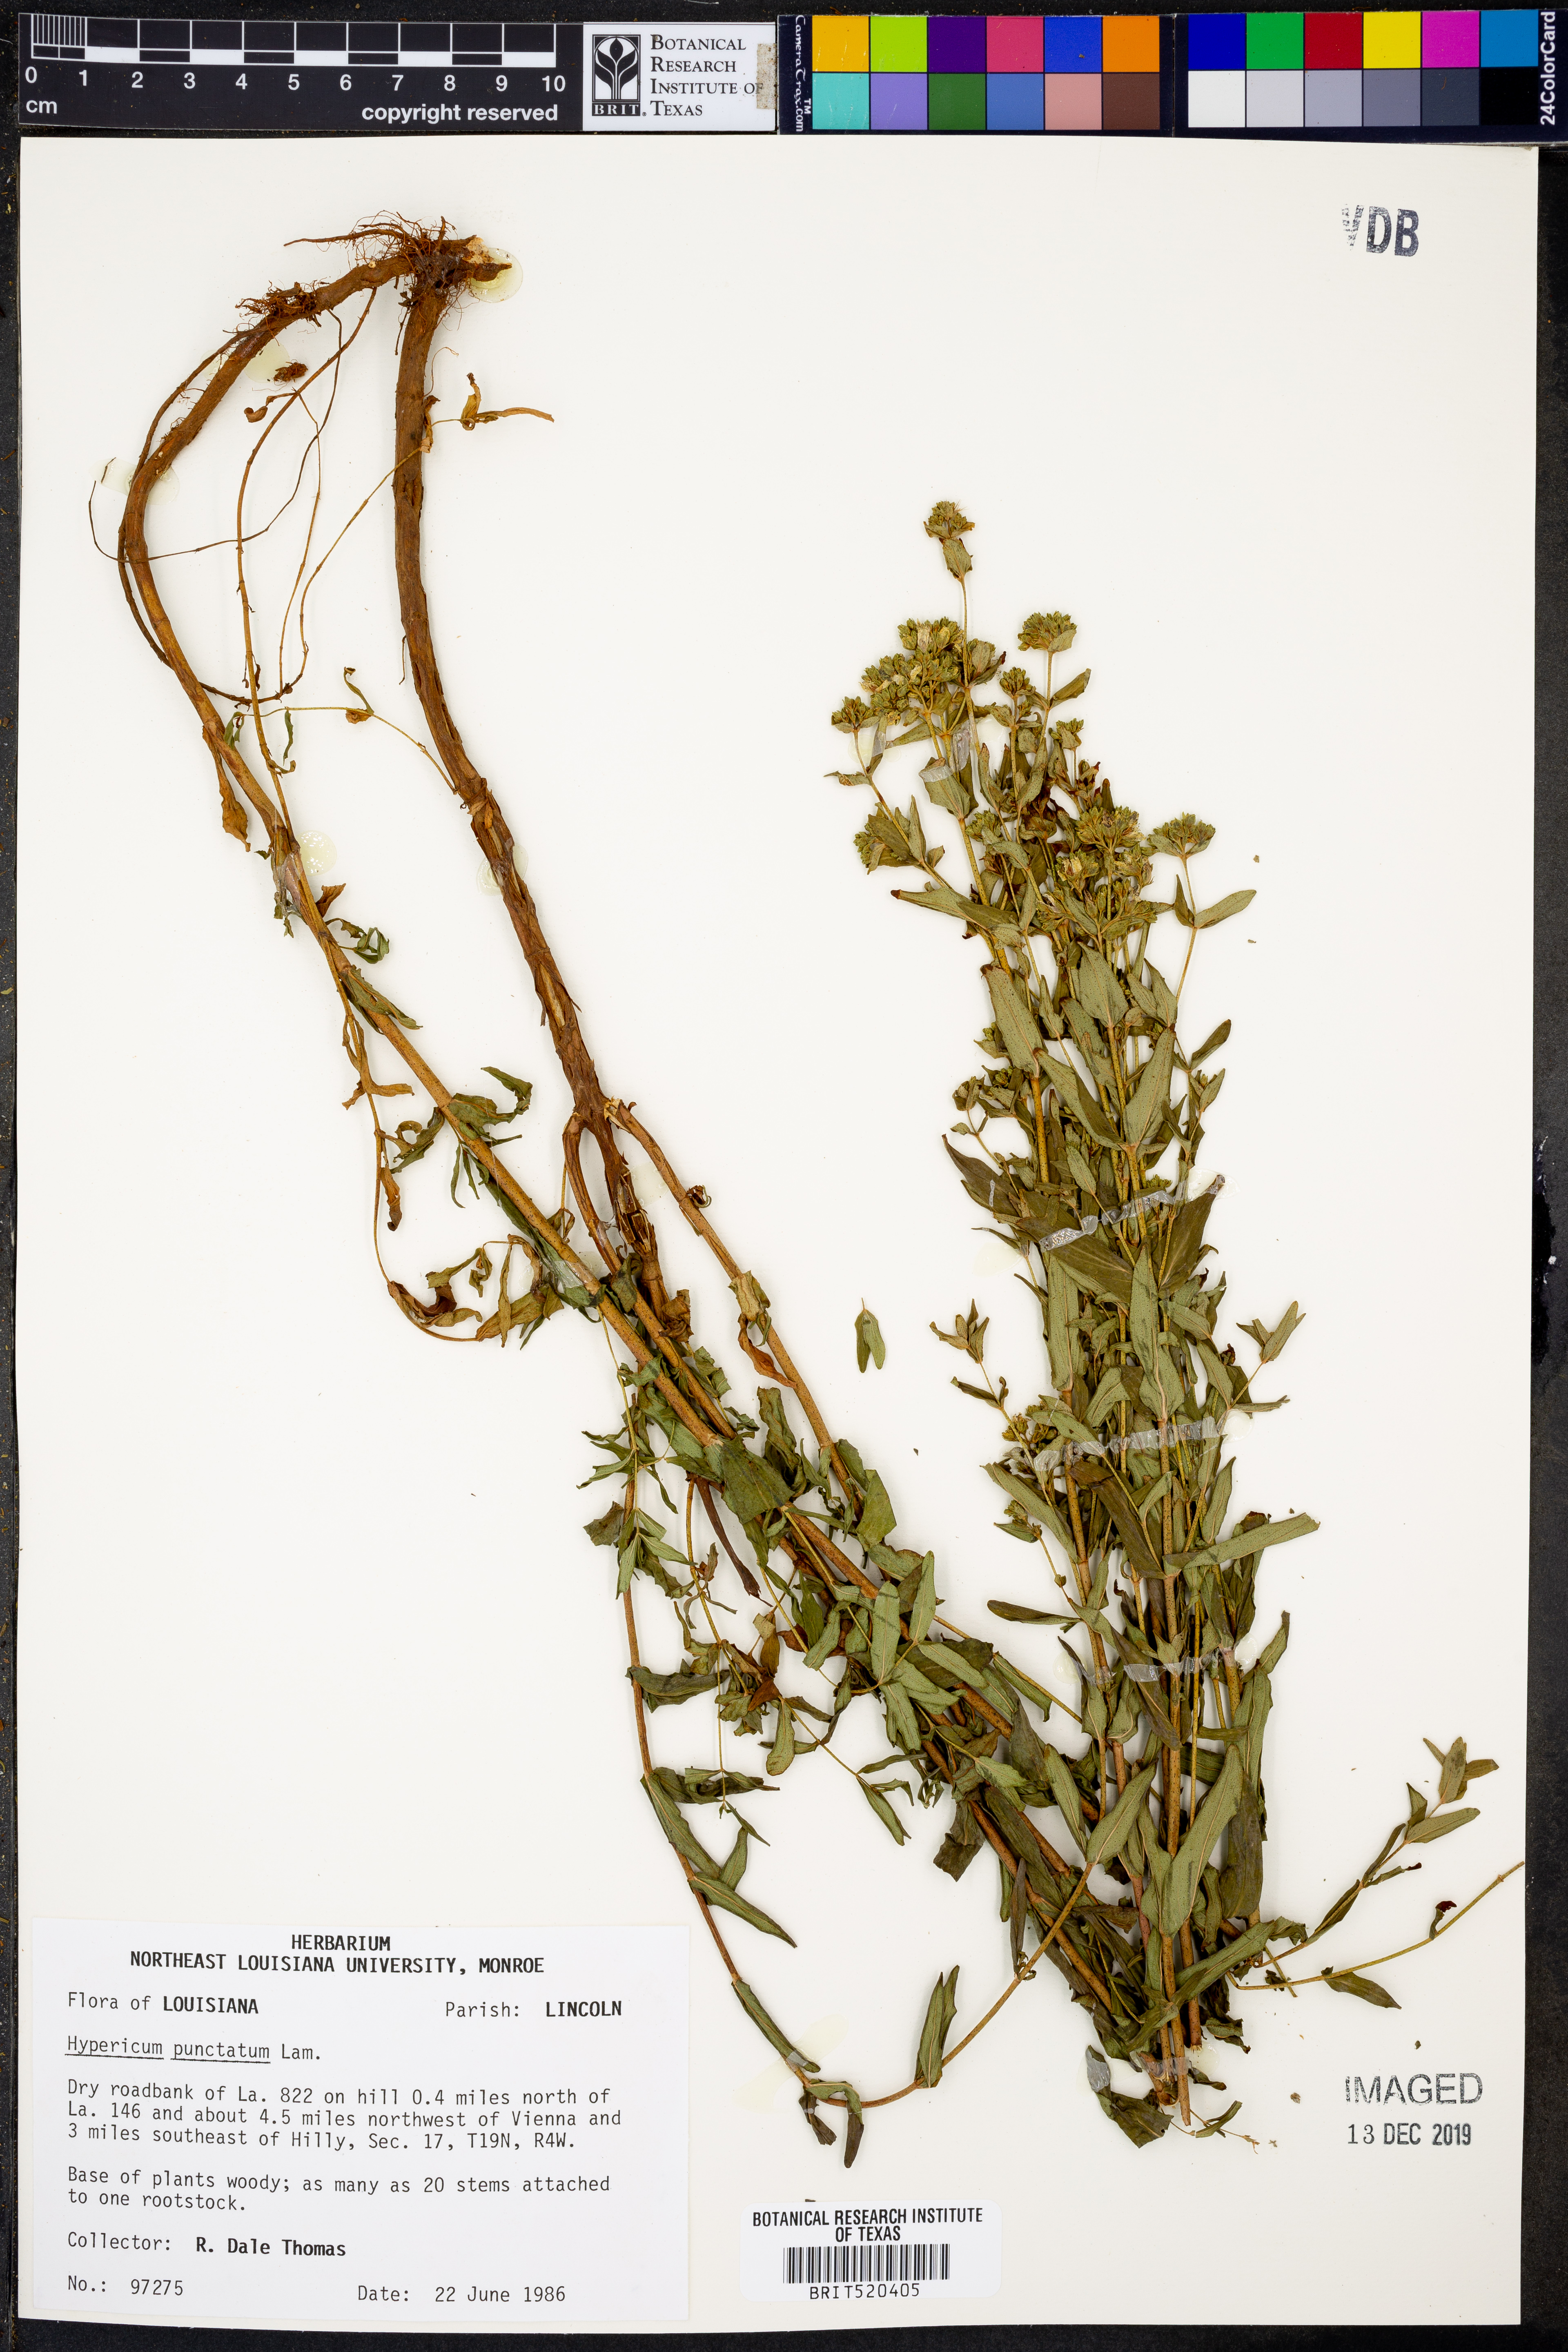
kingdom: Plantae
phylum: Tracheophyta
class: Magnoliopsida
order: Malpighiales
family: Hypericaceae
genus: Hypericum
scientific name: Hypericum punctatum
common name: Spotted st. john's-wort
